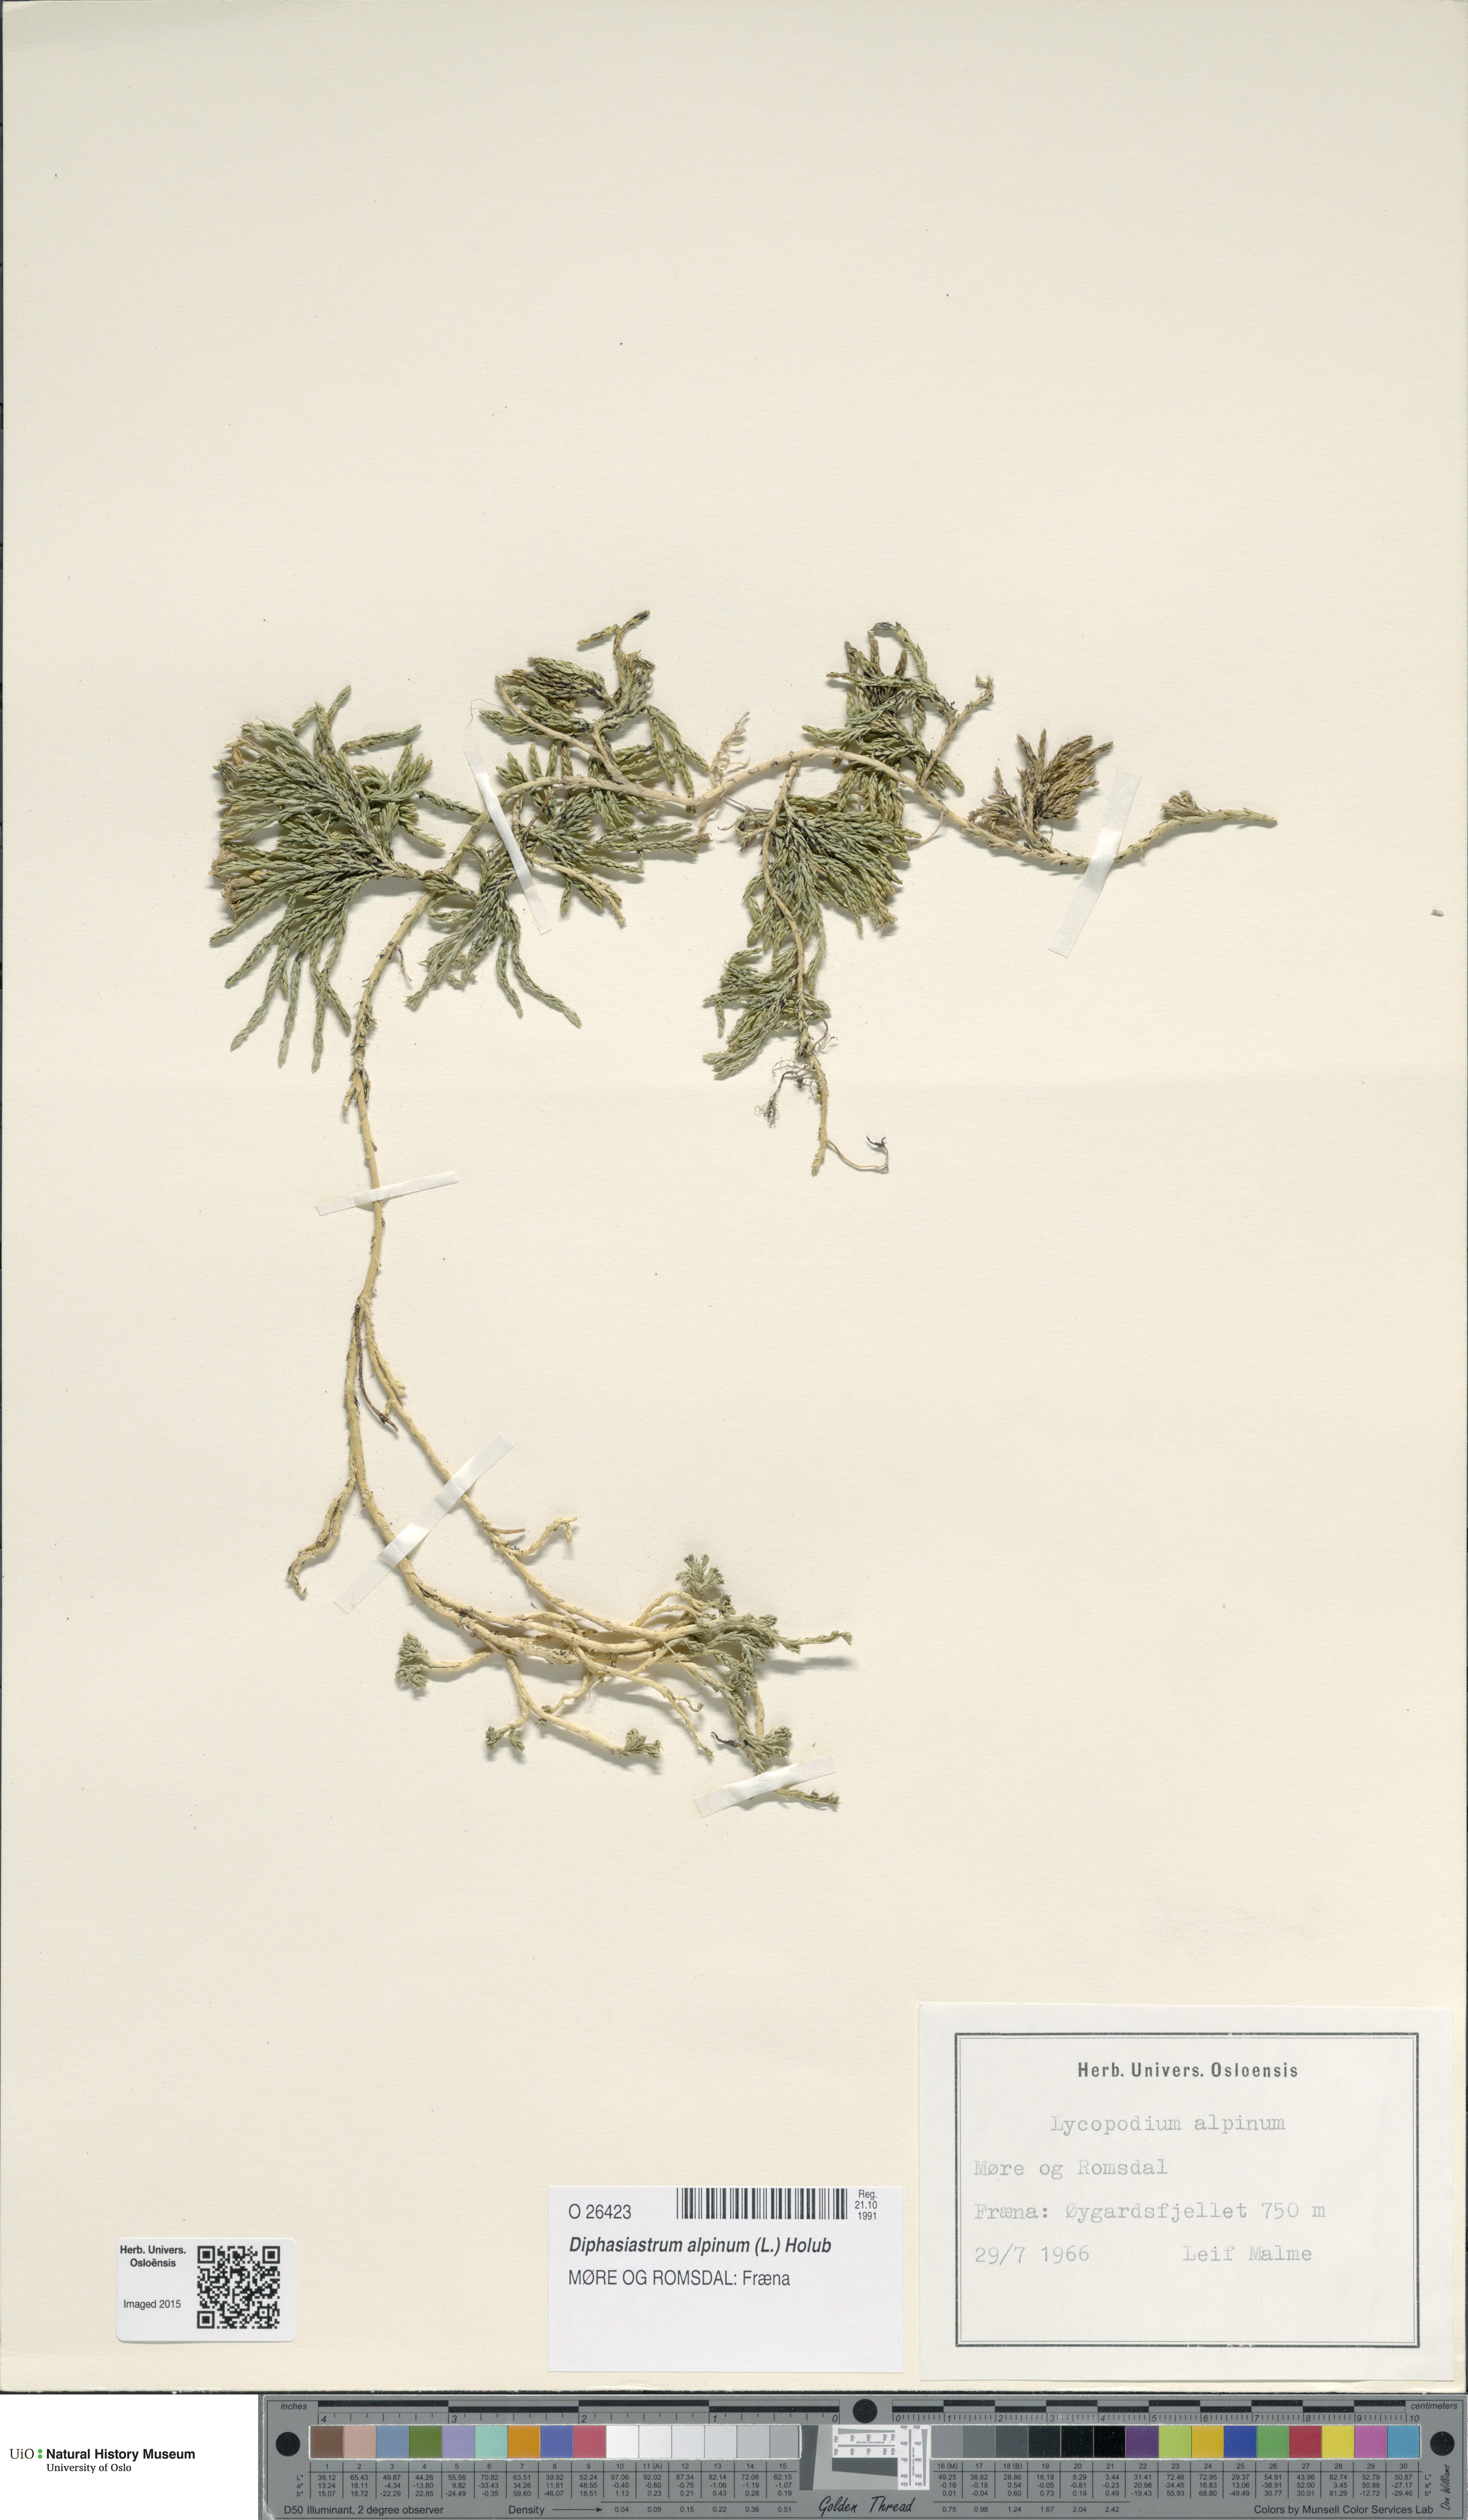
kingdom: Plantae
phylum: Tracheophyta
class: Lycopodiopsida
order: Lycopodiales
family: Lycopodiaceae
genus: Diphasiastrum
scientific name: Diphasiastrum alpinum
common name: Alpine clubmoss
